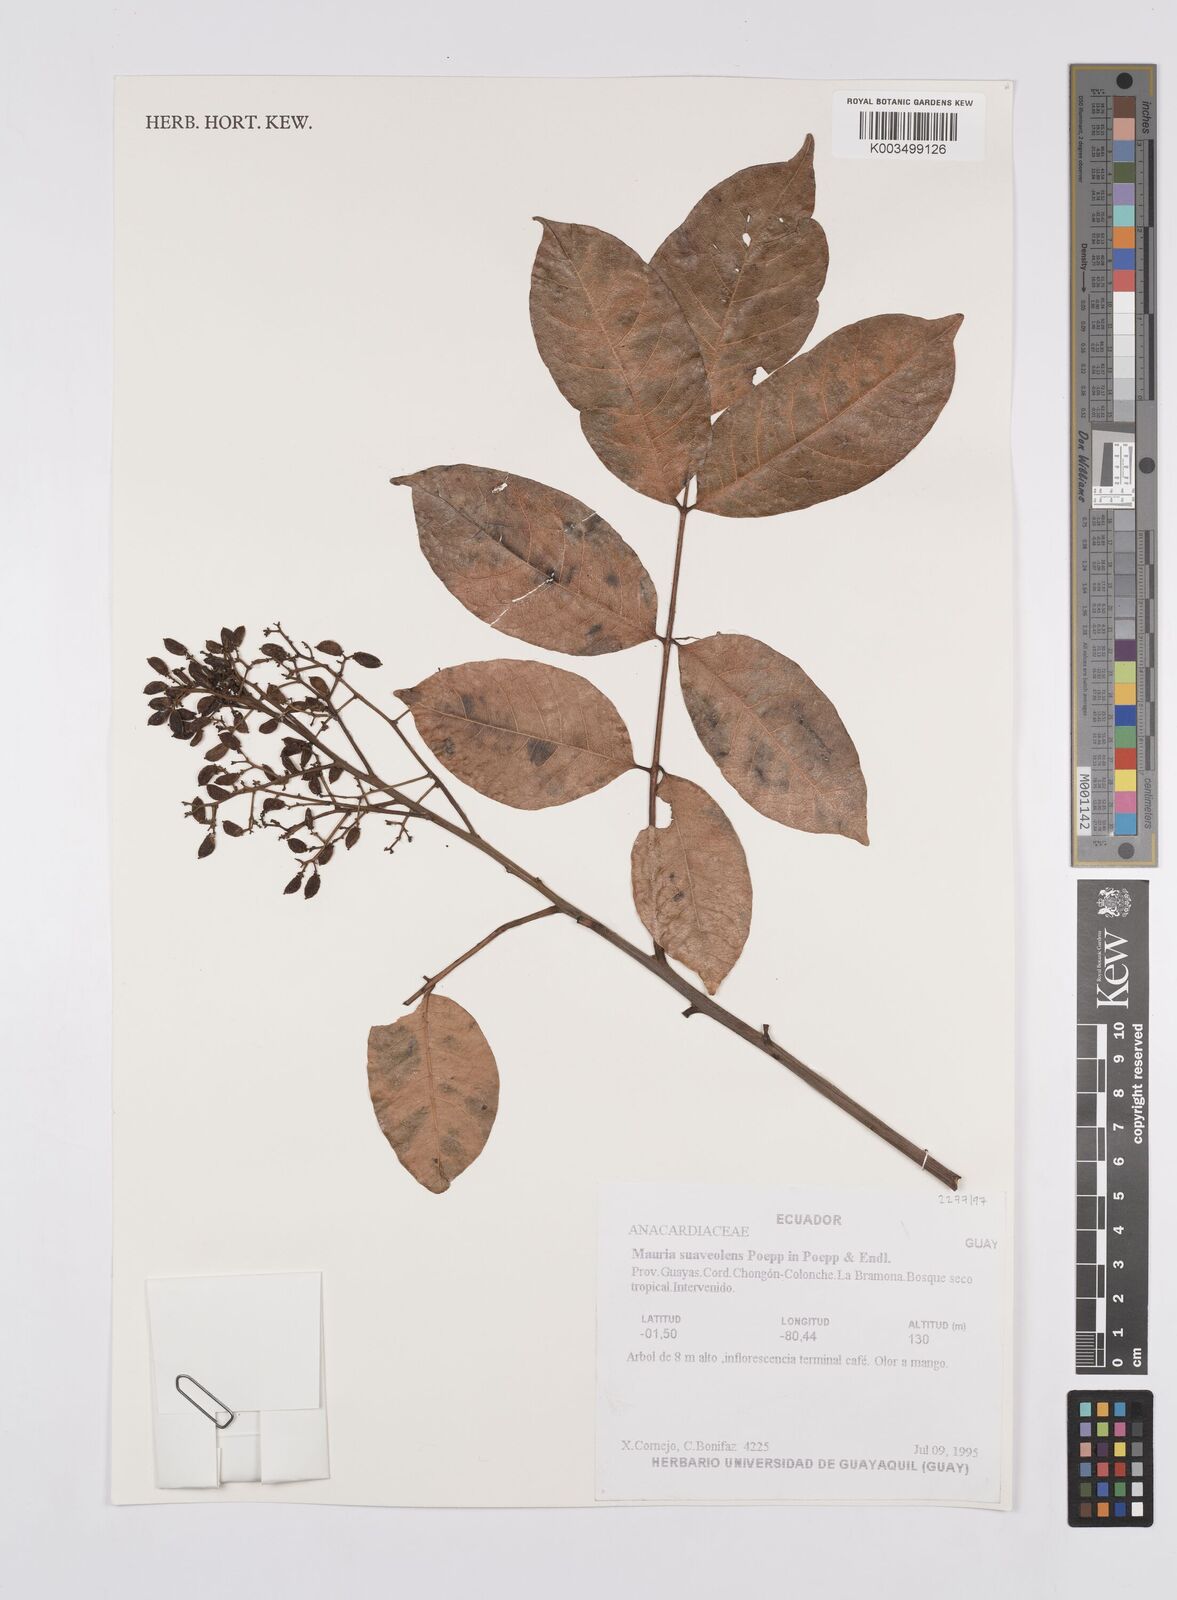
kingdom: Plantae
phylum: Tracheophyta
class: Magnoliopsida
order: Sapindales
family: Anacardiaceae
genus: Mauria
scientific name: Mauria heterophylla
